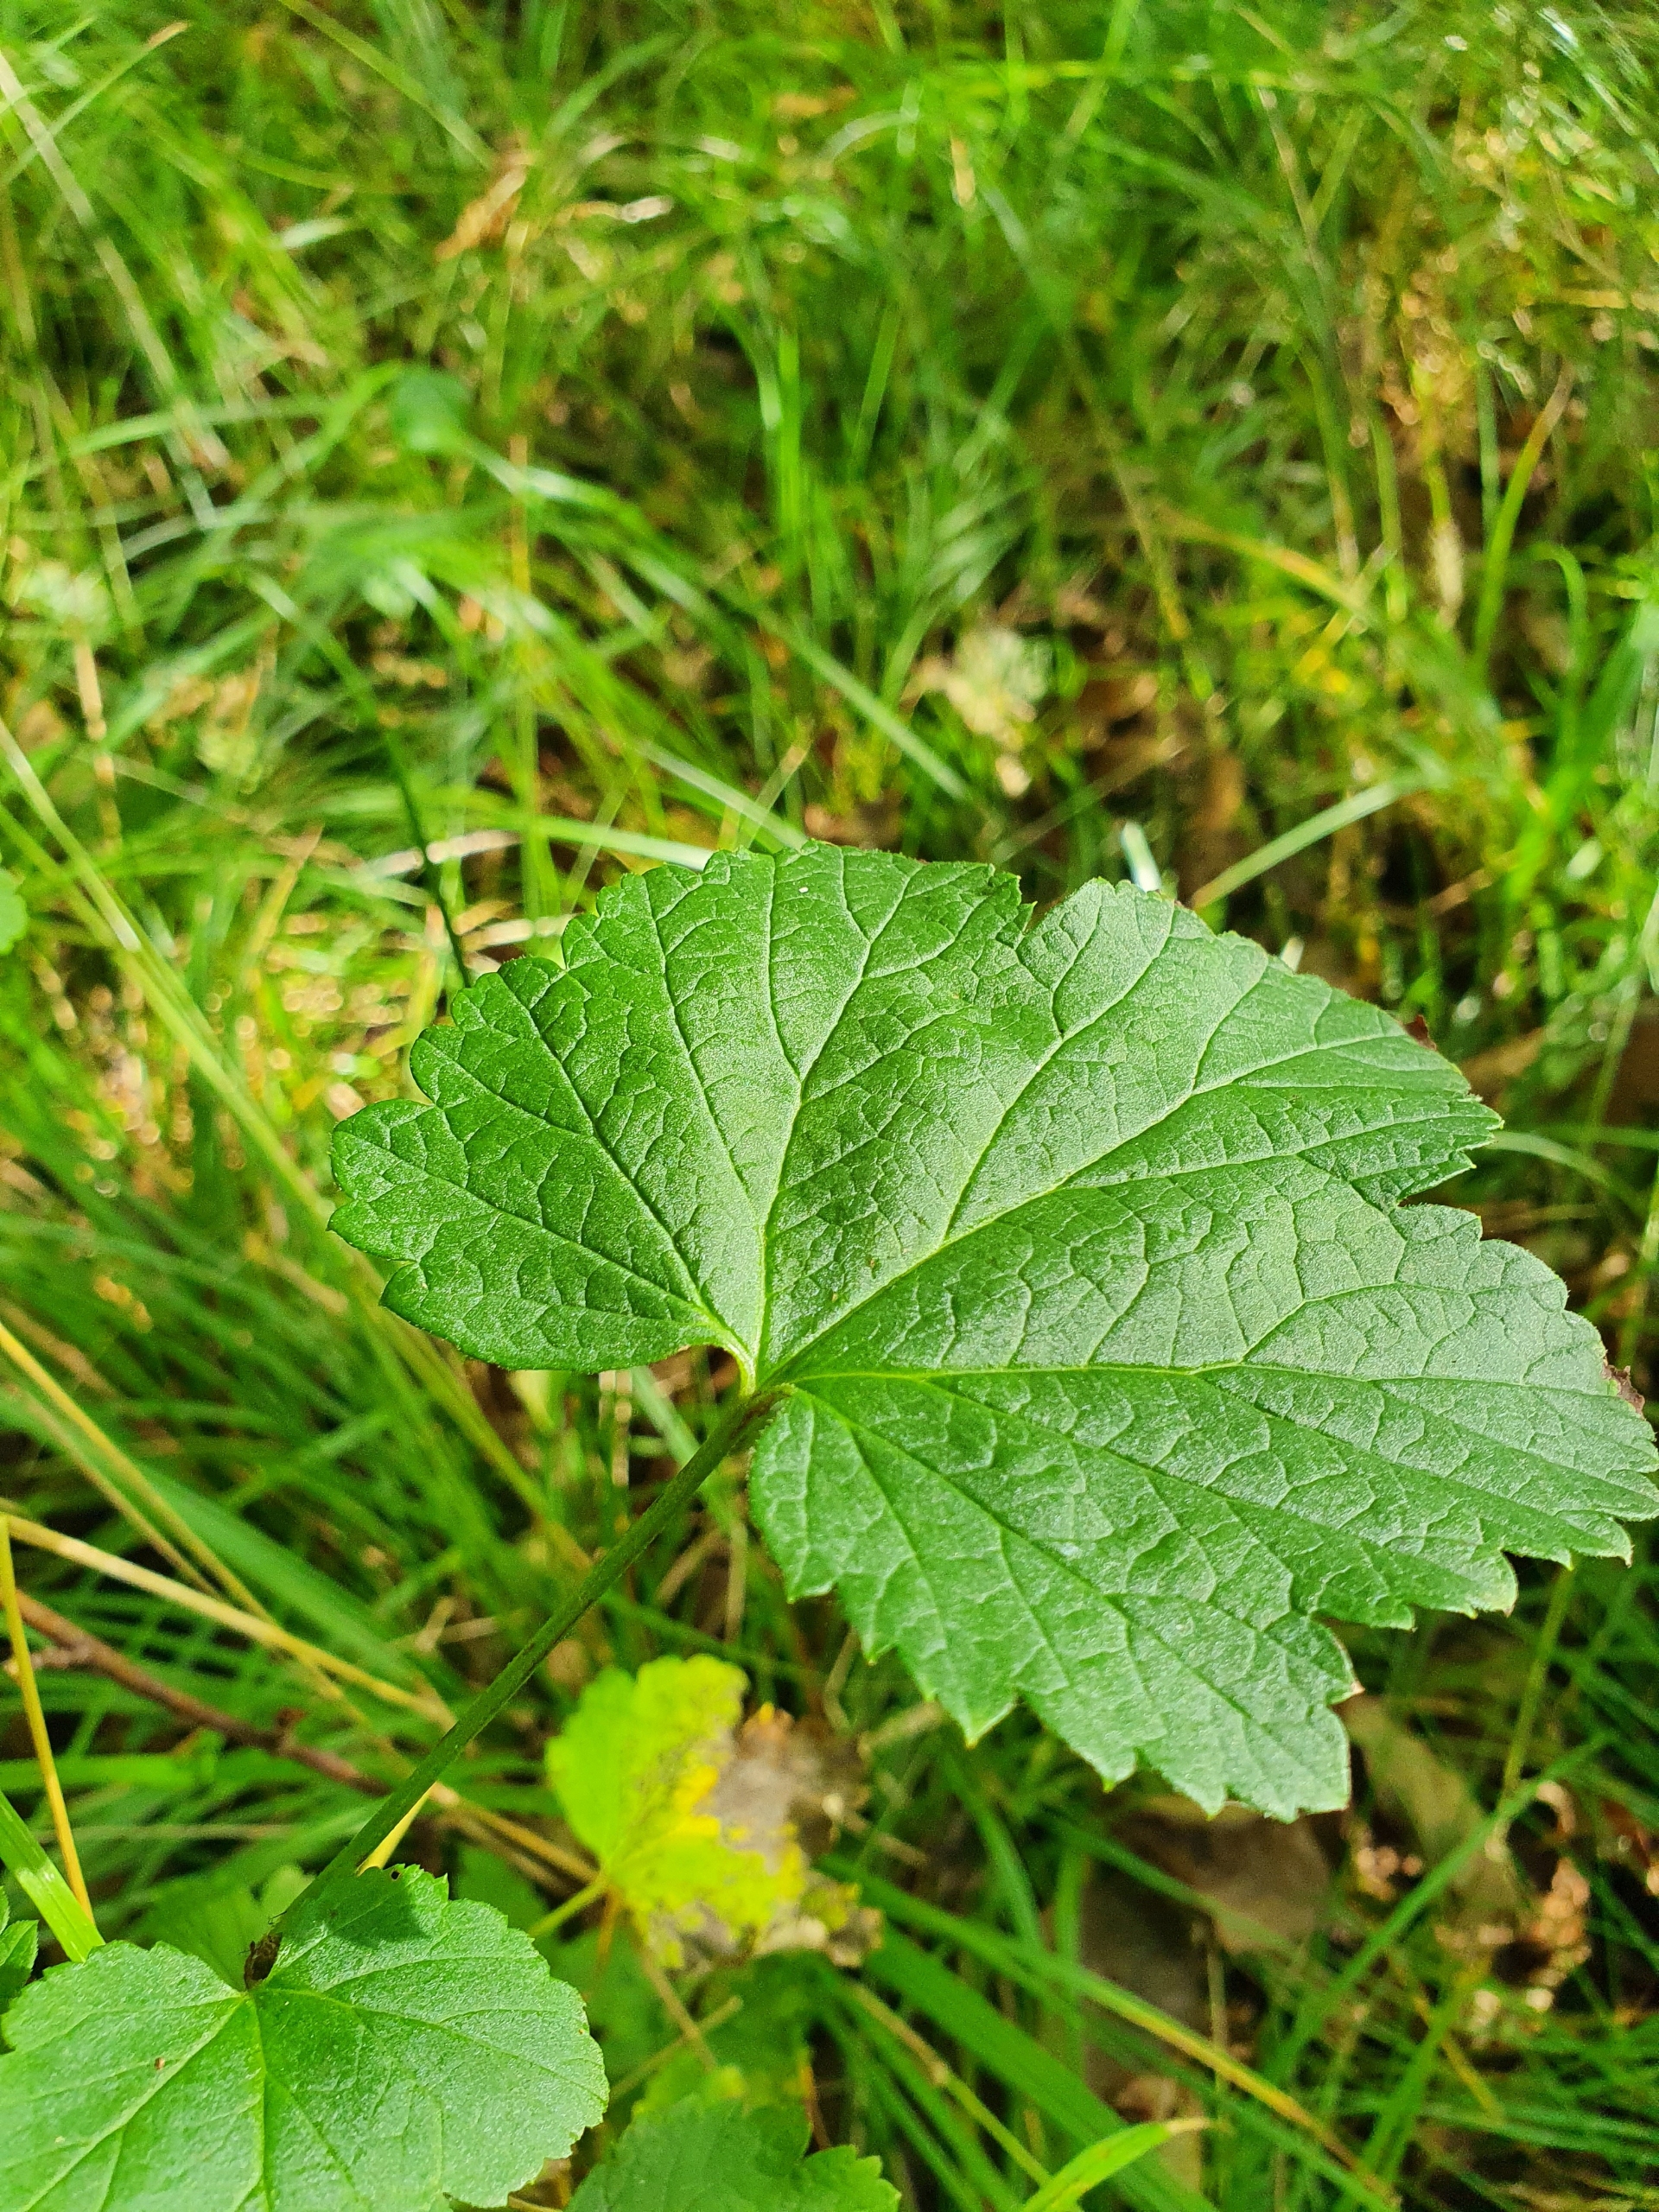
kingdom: Plantae
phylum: Tracheophyta
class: Magnoliopsida
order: Saxifragales
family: Grossulariaceae
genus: Ribes
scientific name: Ribes rubrum
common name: Have-ribs
